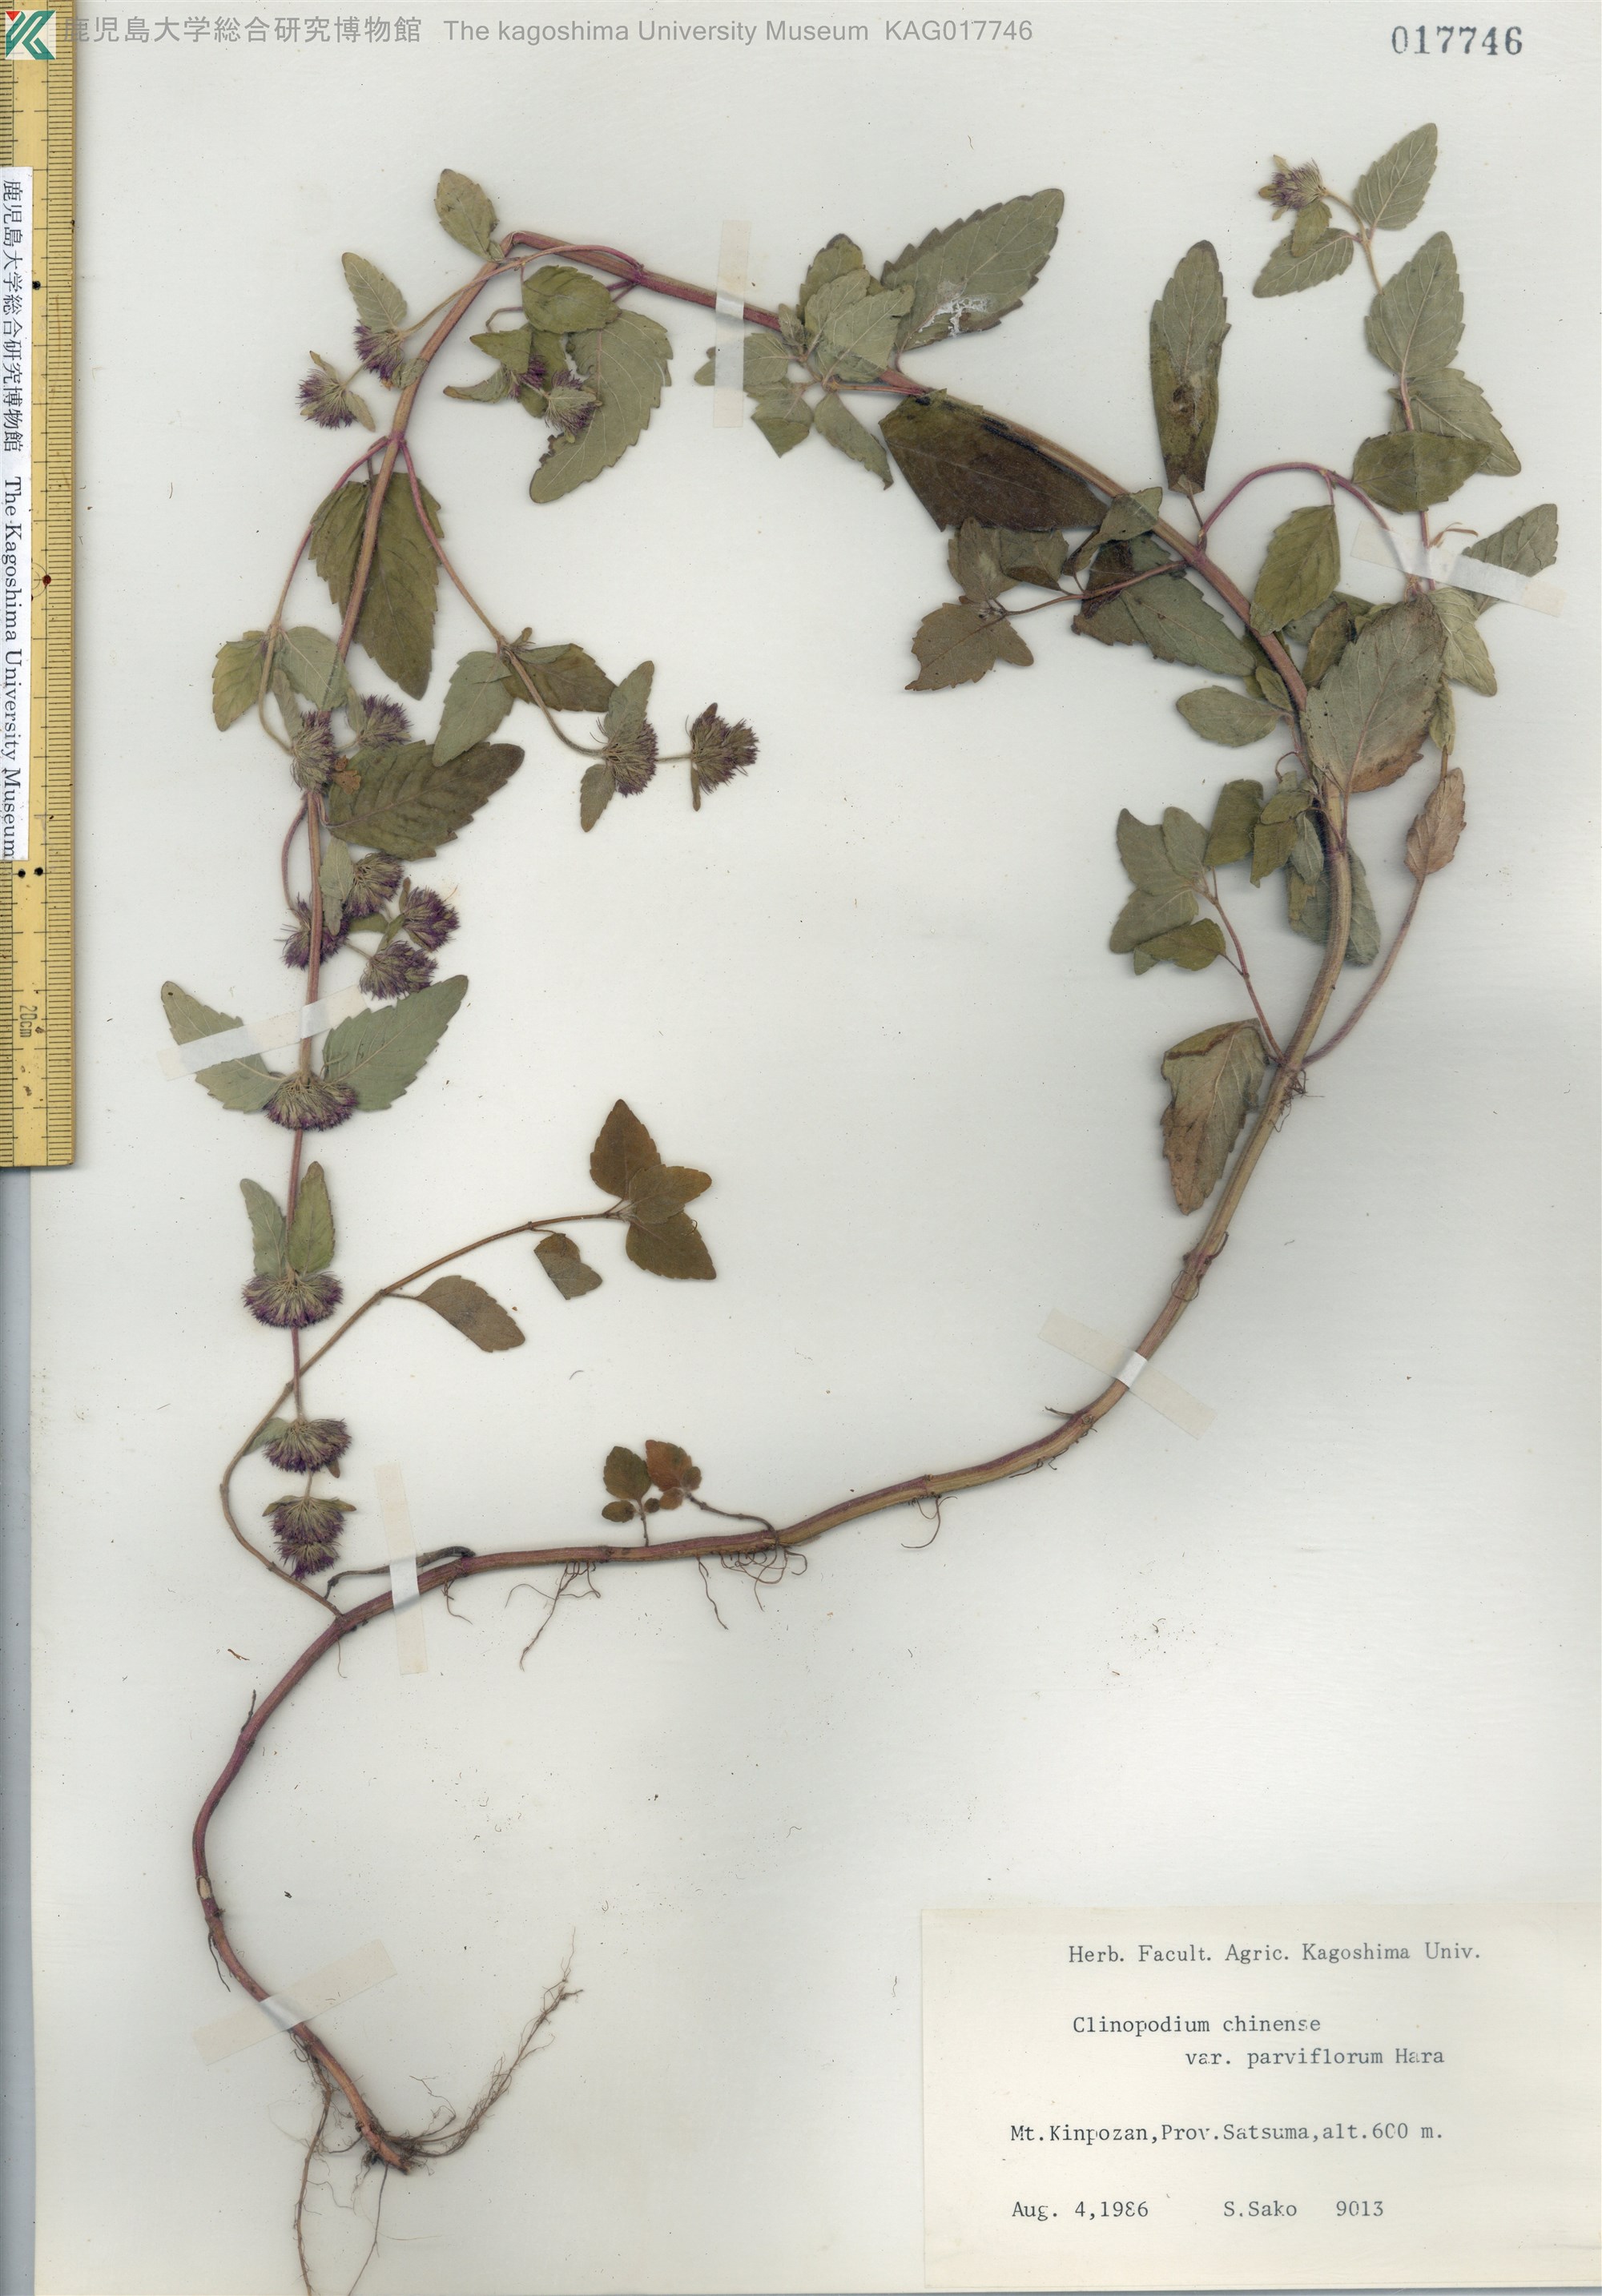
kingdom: Plantae
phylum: Tracheophyta
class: Magnoliopsida
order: Lamiales
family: Lamiaceae
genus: Clinopodium
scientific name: Clinopodium chinense
